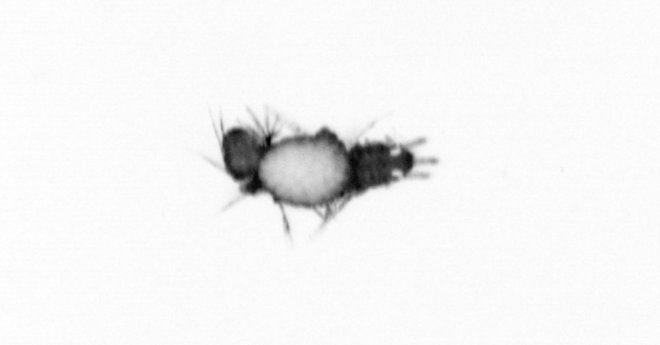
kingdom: Animalia
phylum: Annelida
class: Polychaeta
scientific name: Polychaeta
